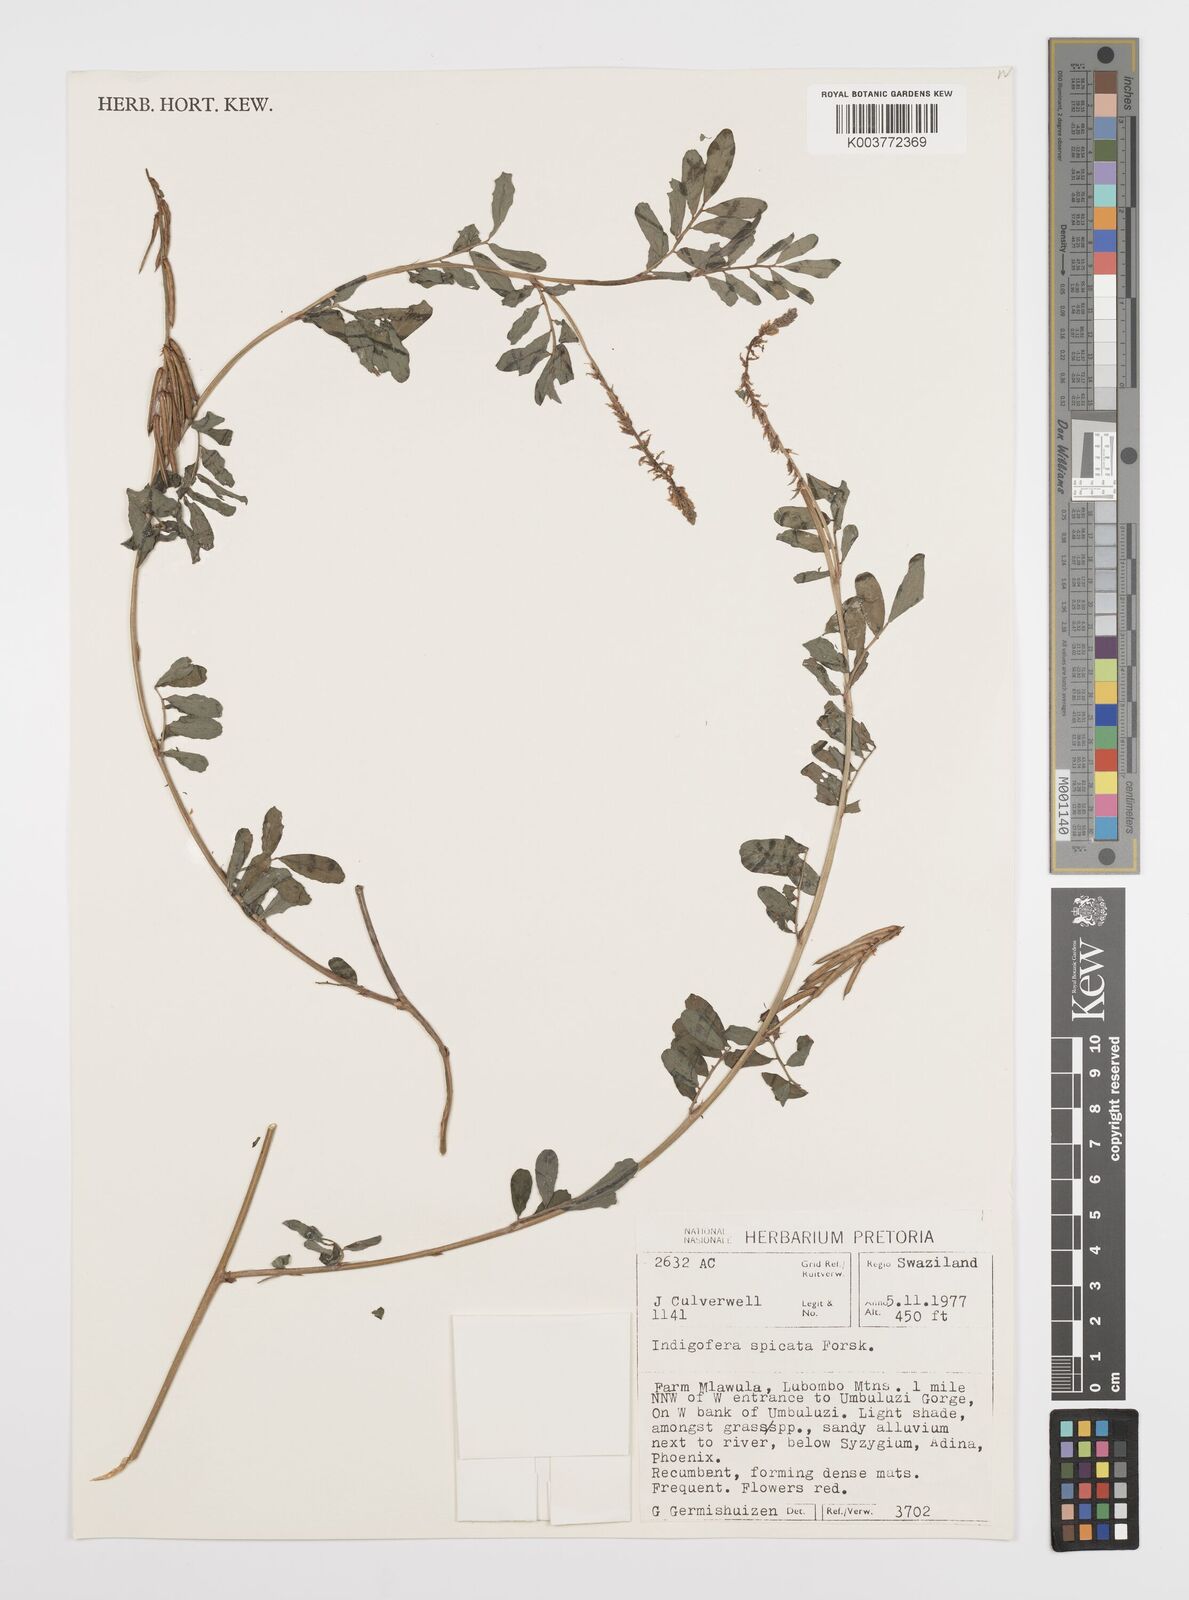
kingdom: Plantae
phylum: Tracheophyta
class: Magnoliopsida
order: Fabales
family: Fabaceae
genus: Indigofera
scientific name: Indigofera hendecaphylla
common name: Trailing indigo
